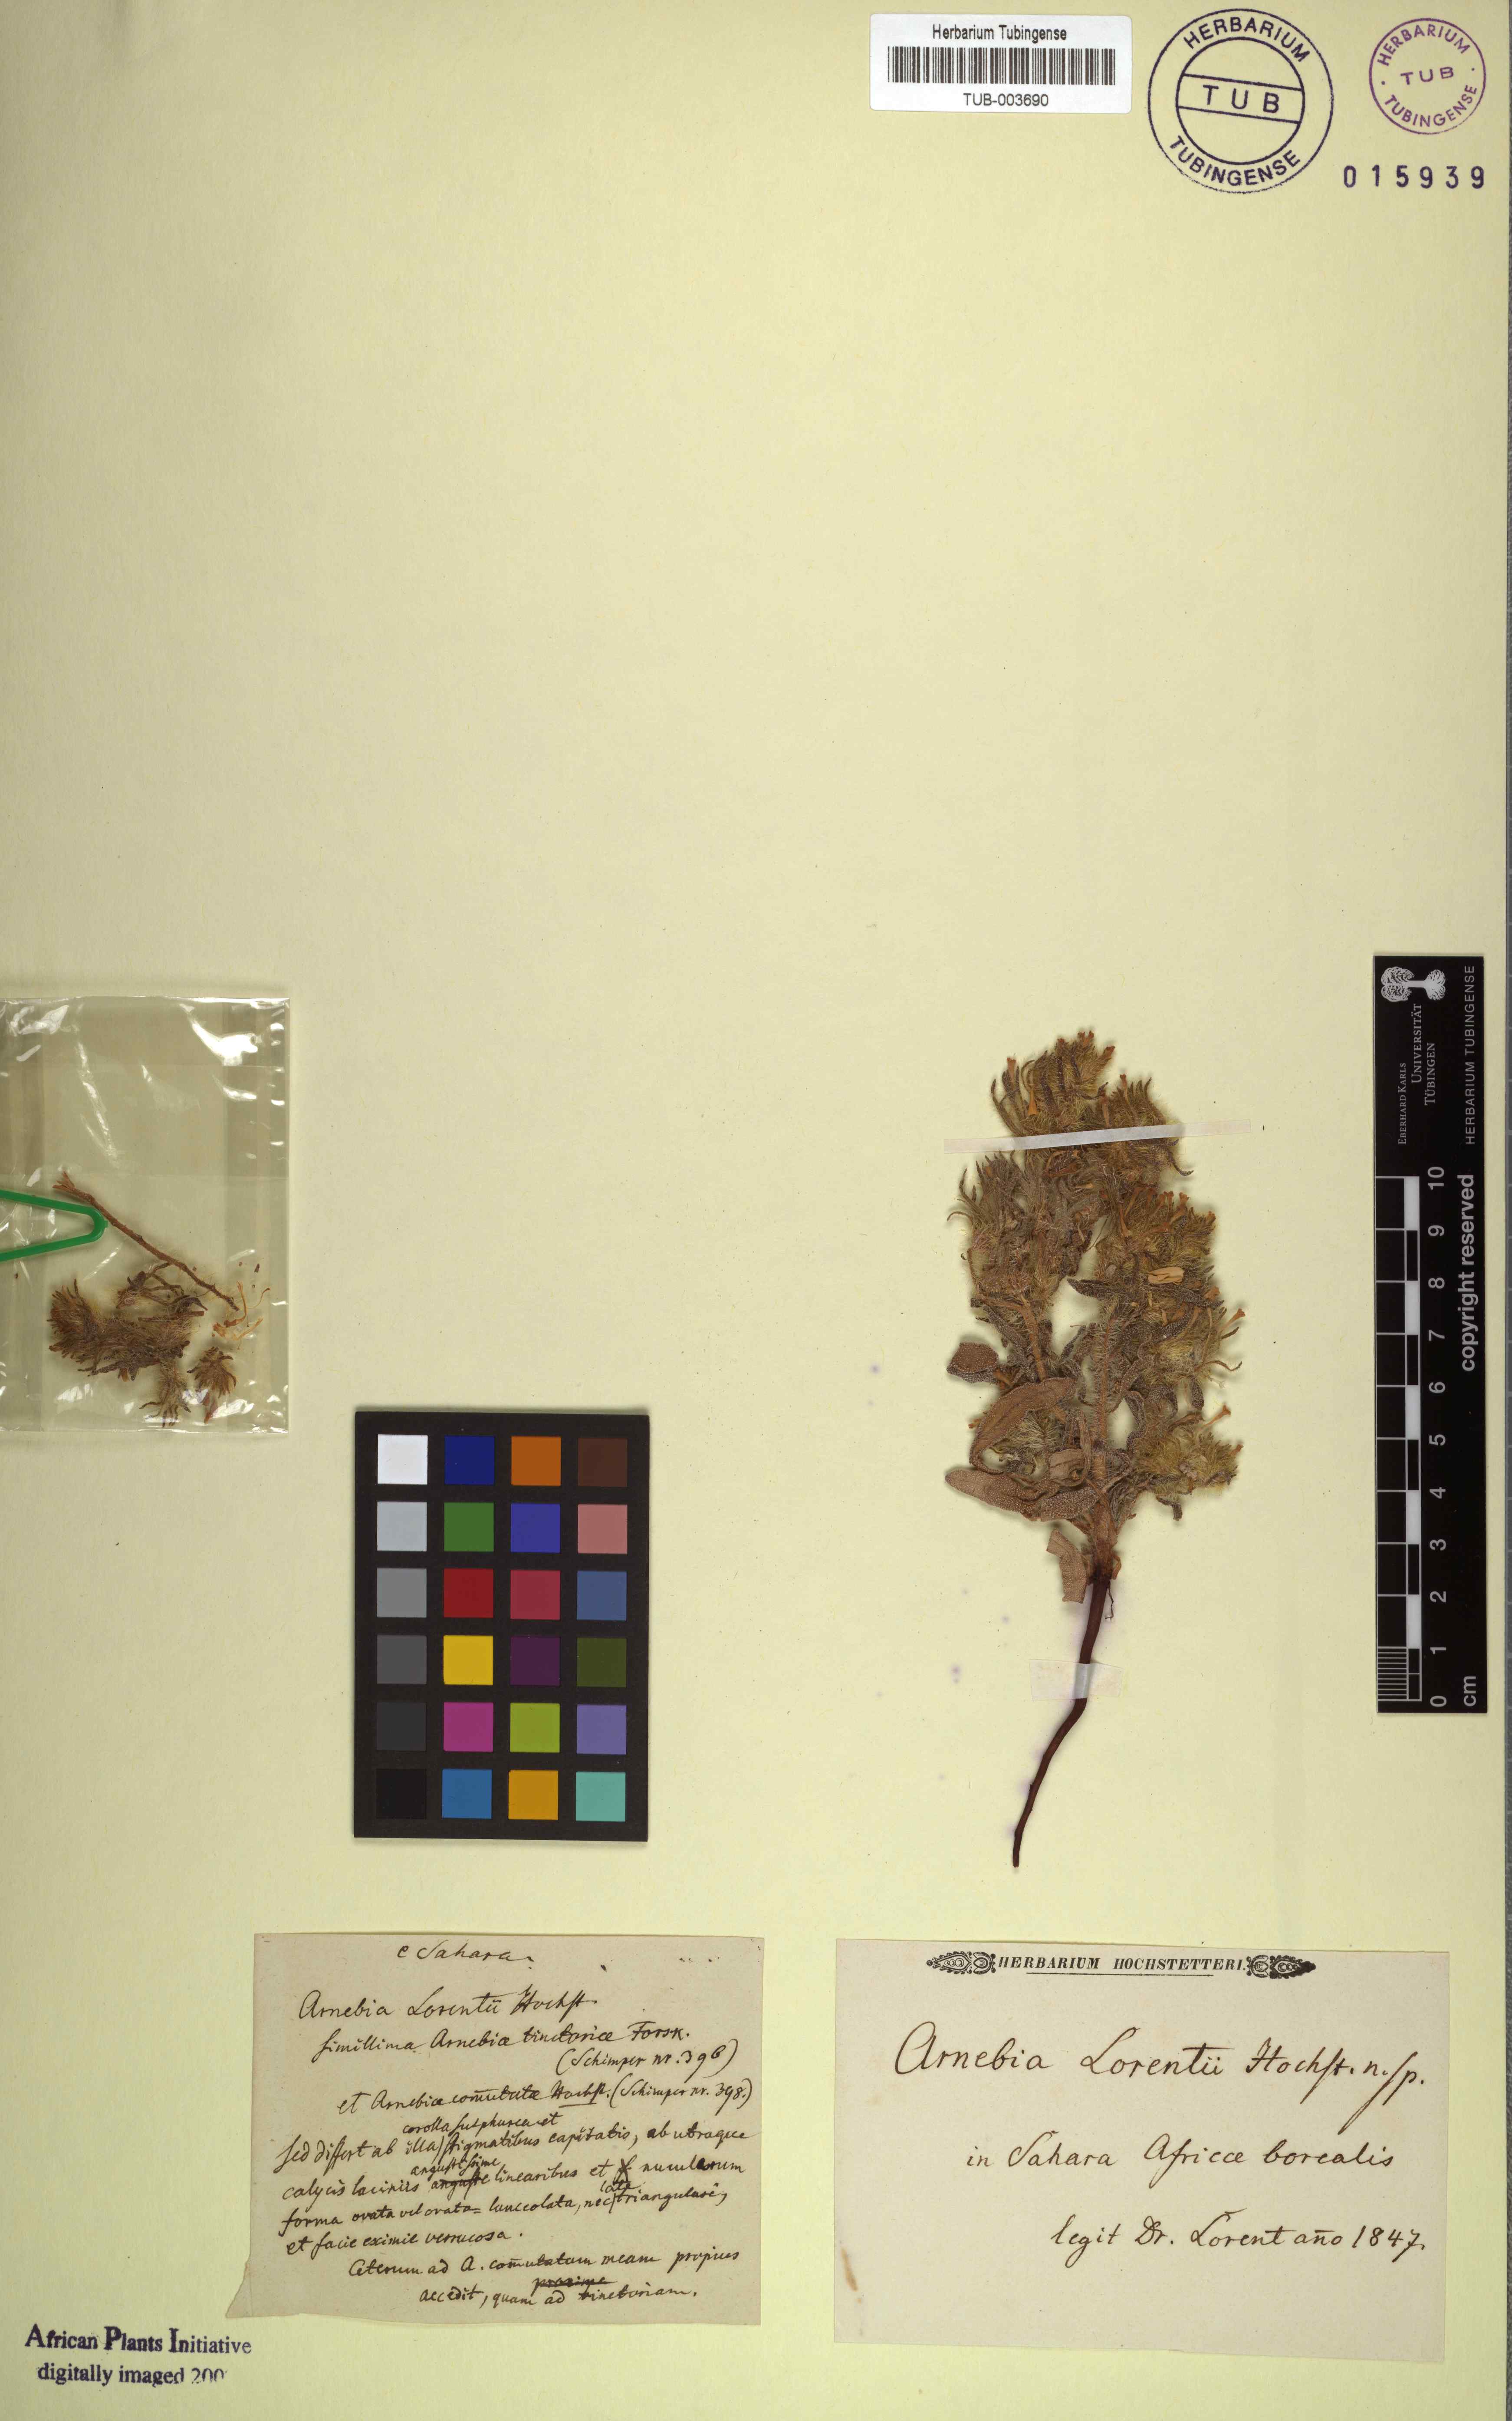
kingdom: Plantae
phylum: Tracheophyta
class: Magnoliopsida
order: Boraginales
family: Boraginaceae
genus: Arnebia
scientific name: Arnebia
